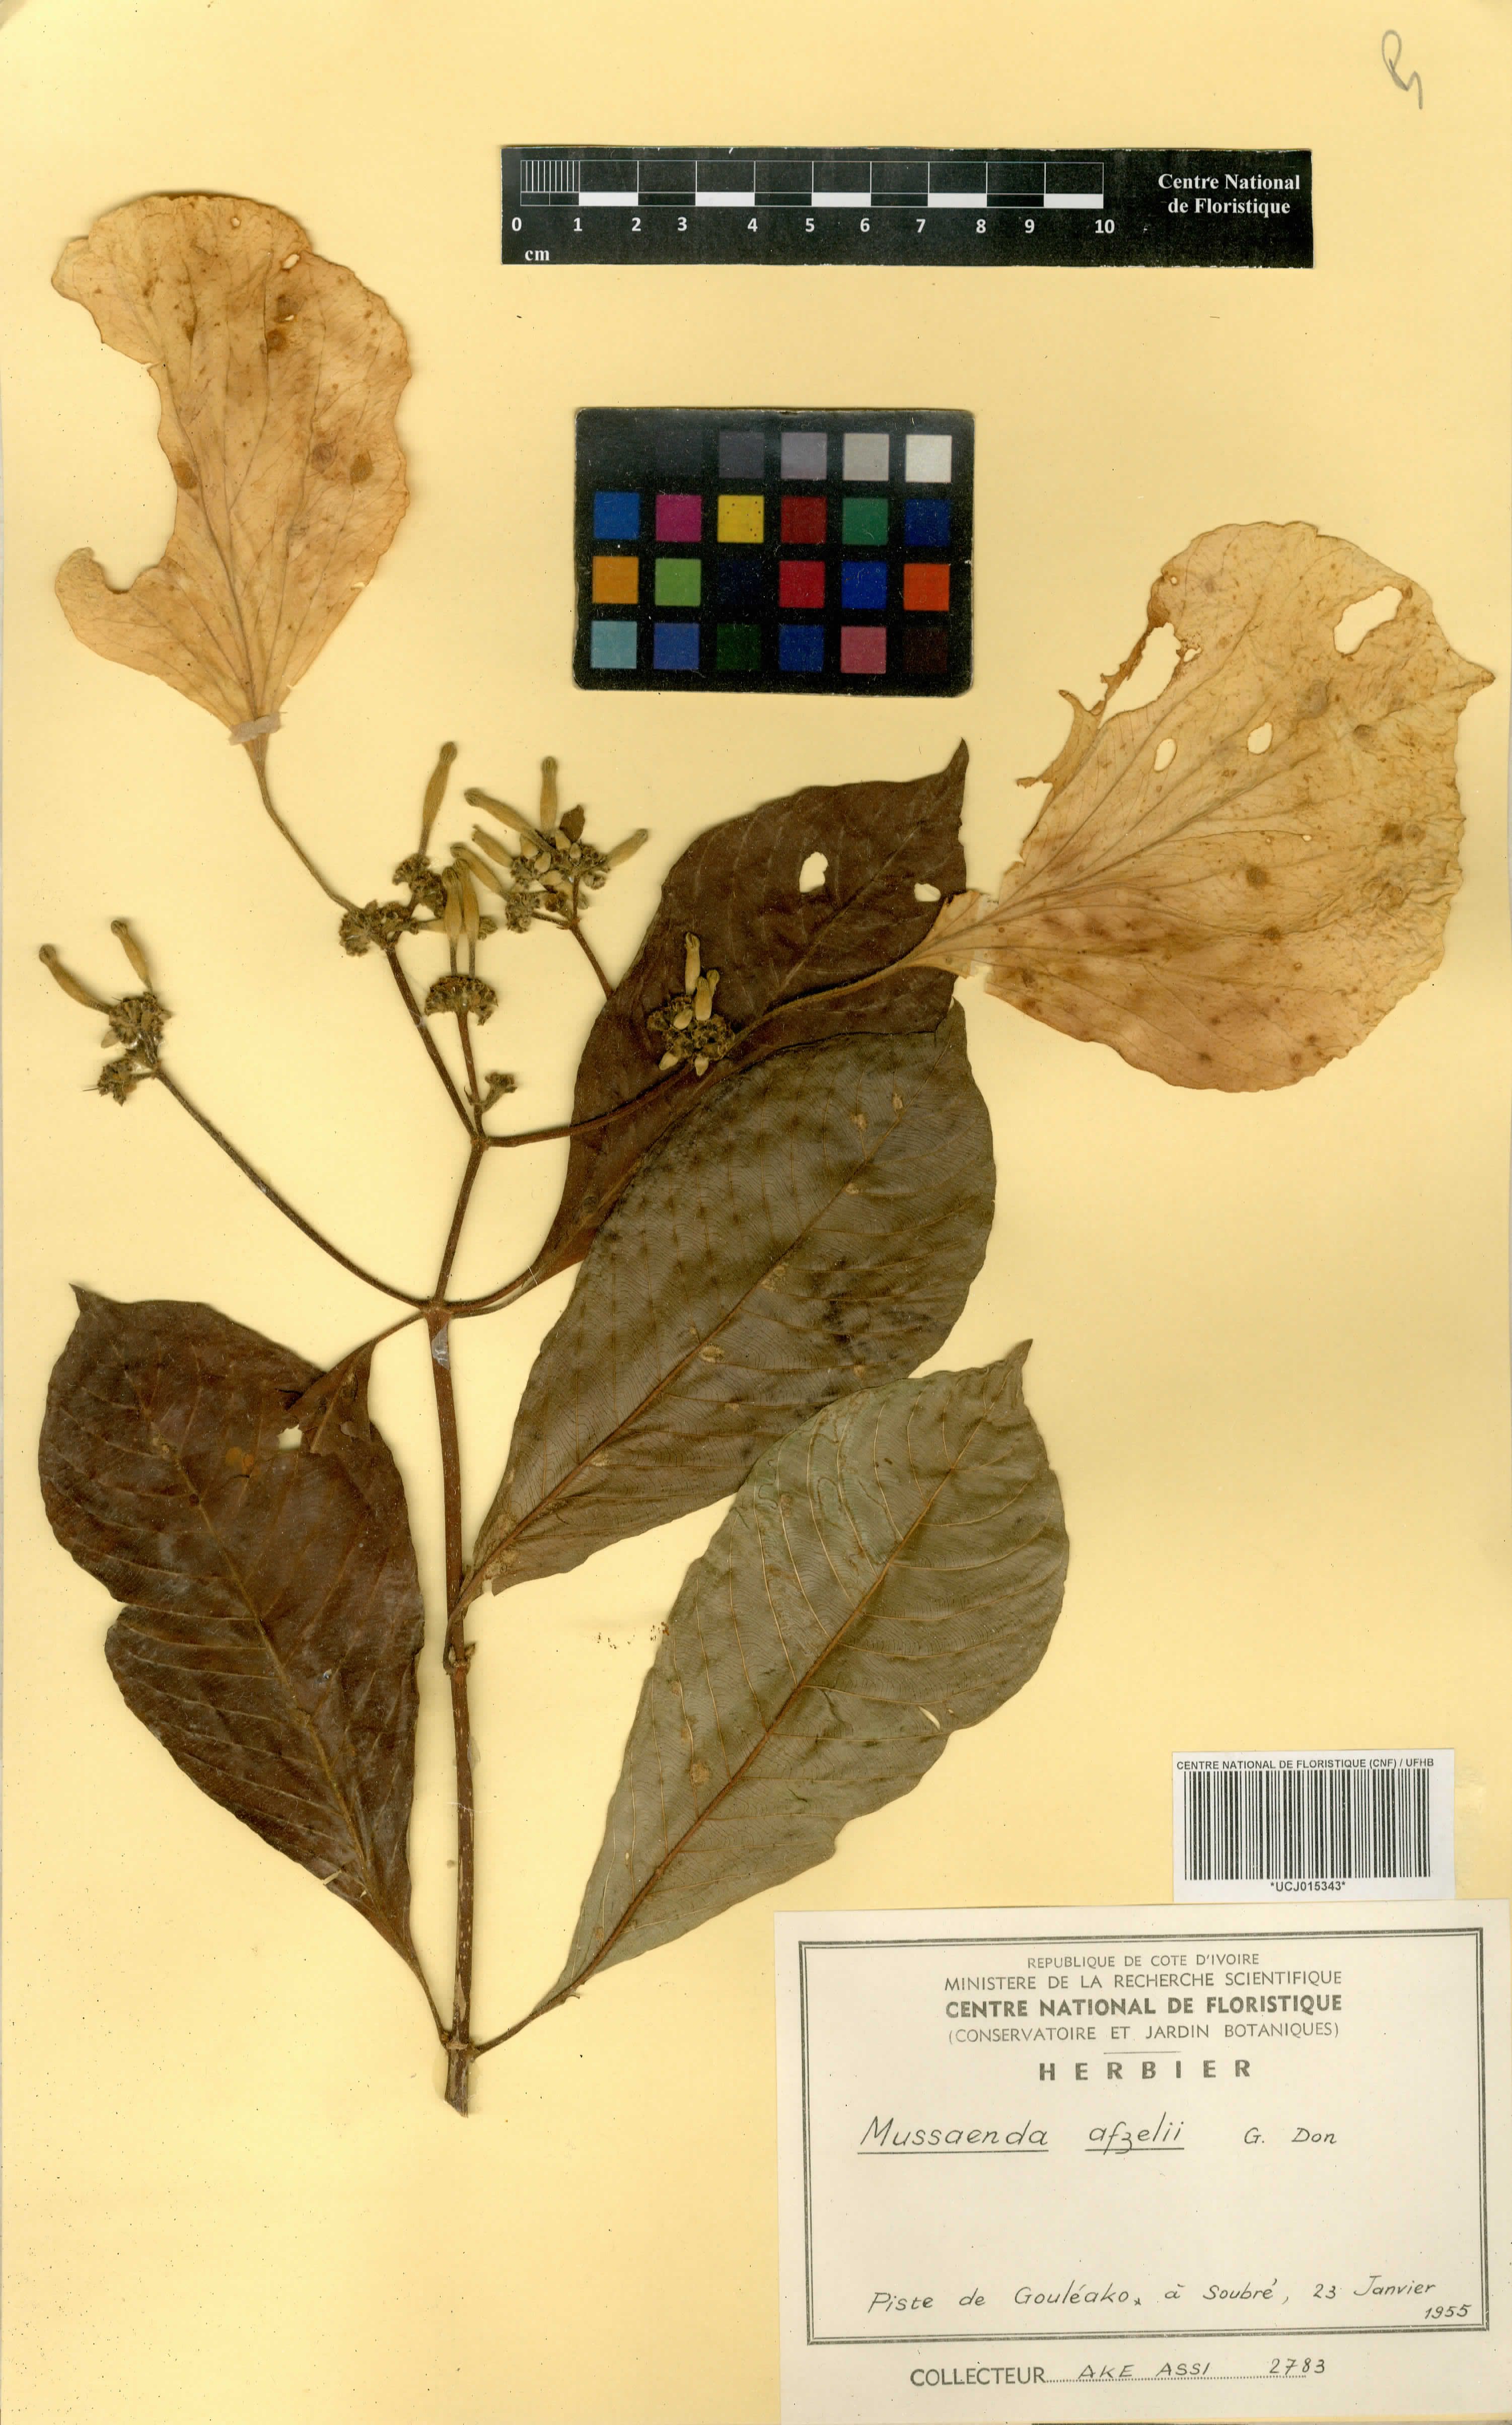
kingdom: Plantae
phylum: Tracheophyta
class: Magnoliopsida
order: Gentianales
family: Rubiaceae
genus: Mussaenda
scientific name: Mussaenda afzelii
